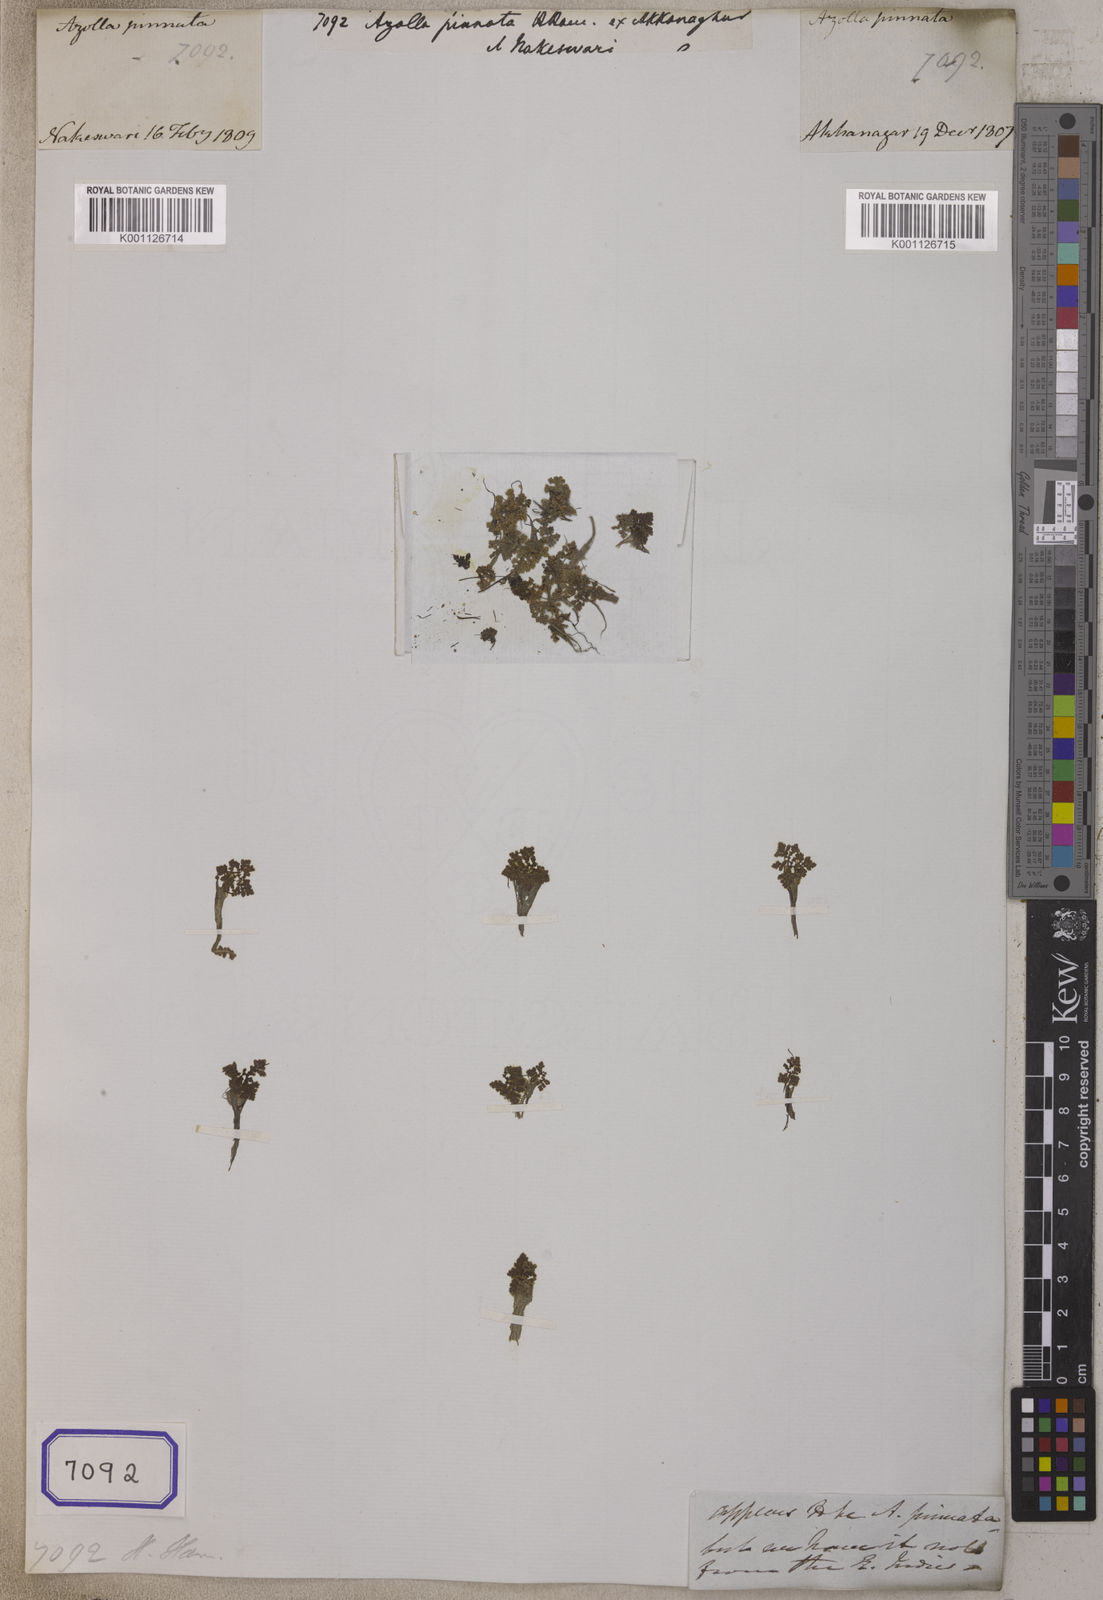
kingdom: Plantae
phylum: Tracheophyta
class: Polypodiopsida
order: Salviniales
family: Salviniaceae
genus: Azolla
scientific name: Azolla pinnata
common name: Ferny azolla
